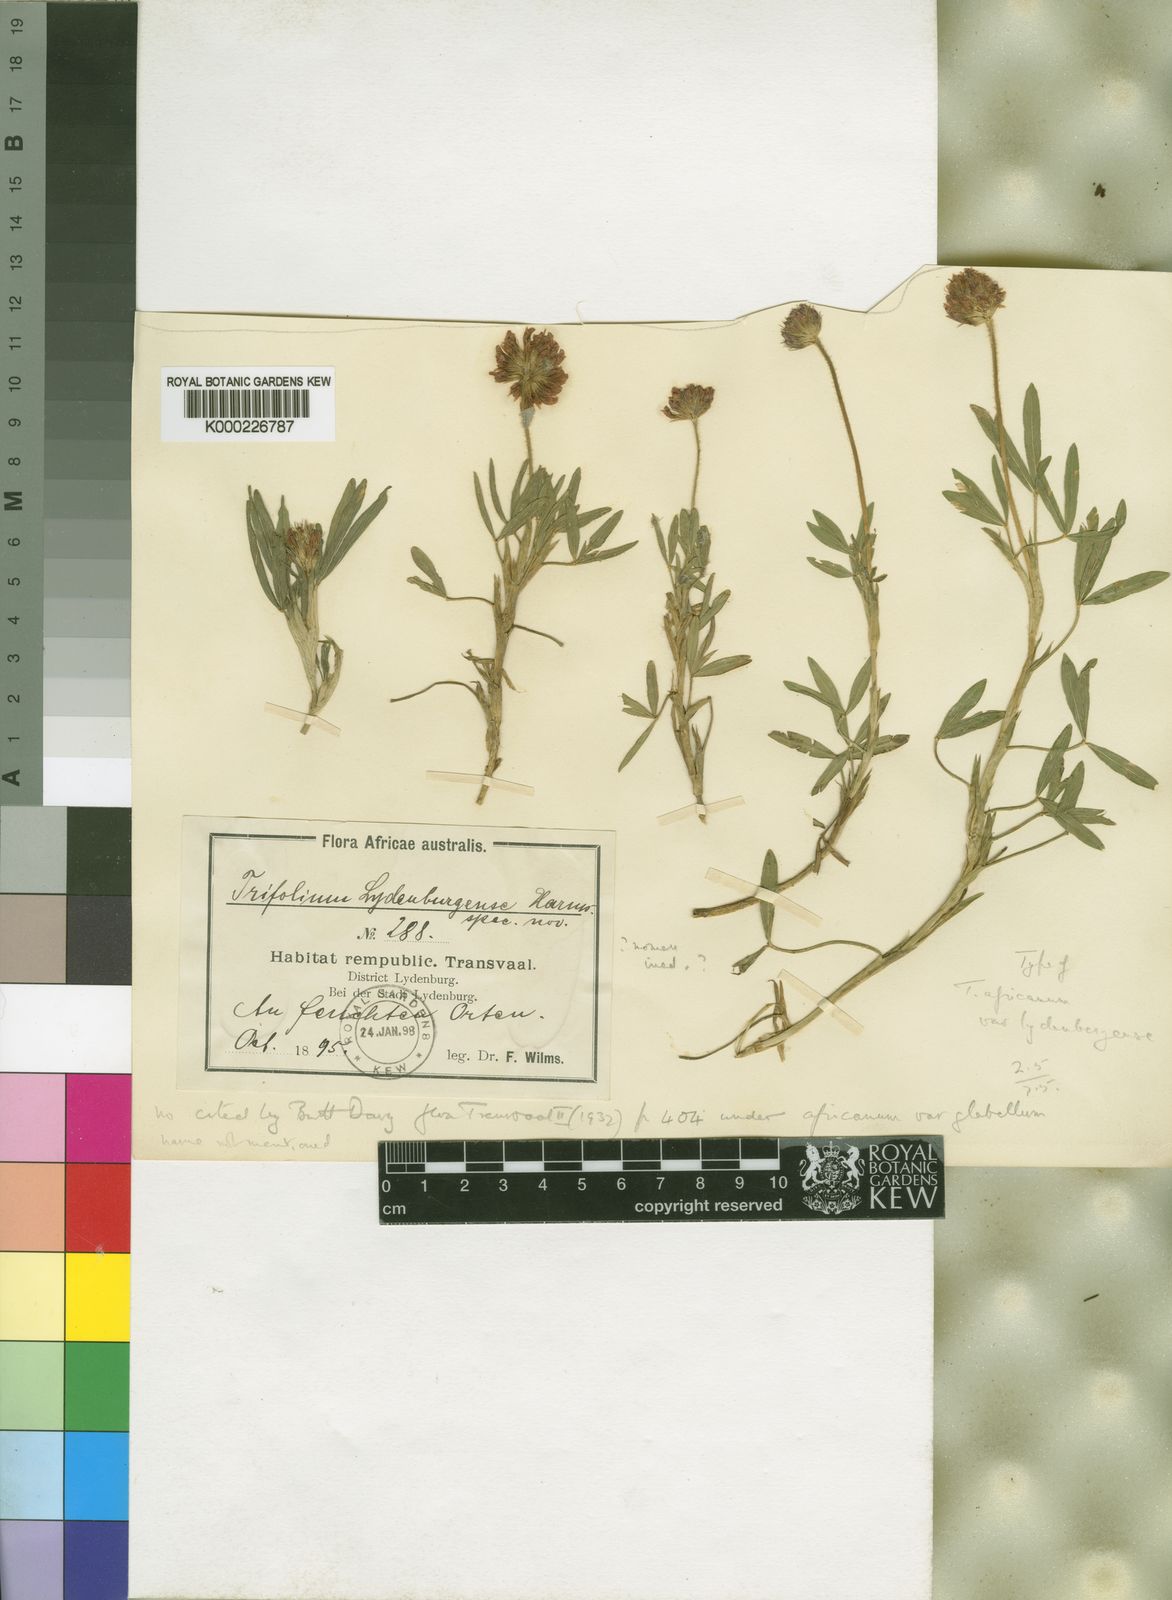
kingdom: Plantae
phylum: Tracheophyta
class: Magnoliopsida
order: Fabales
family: Fabaceae
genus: Trifolium
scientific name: Trifolium africanum
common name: Erasmus clover
